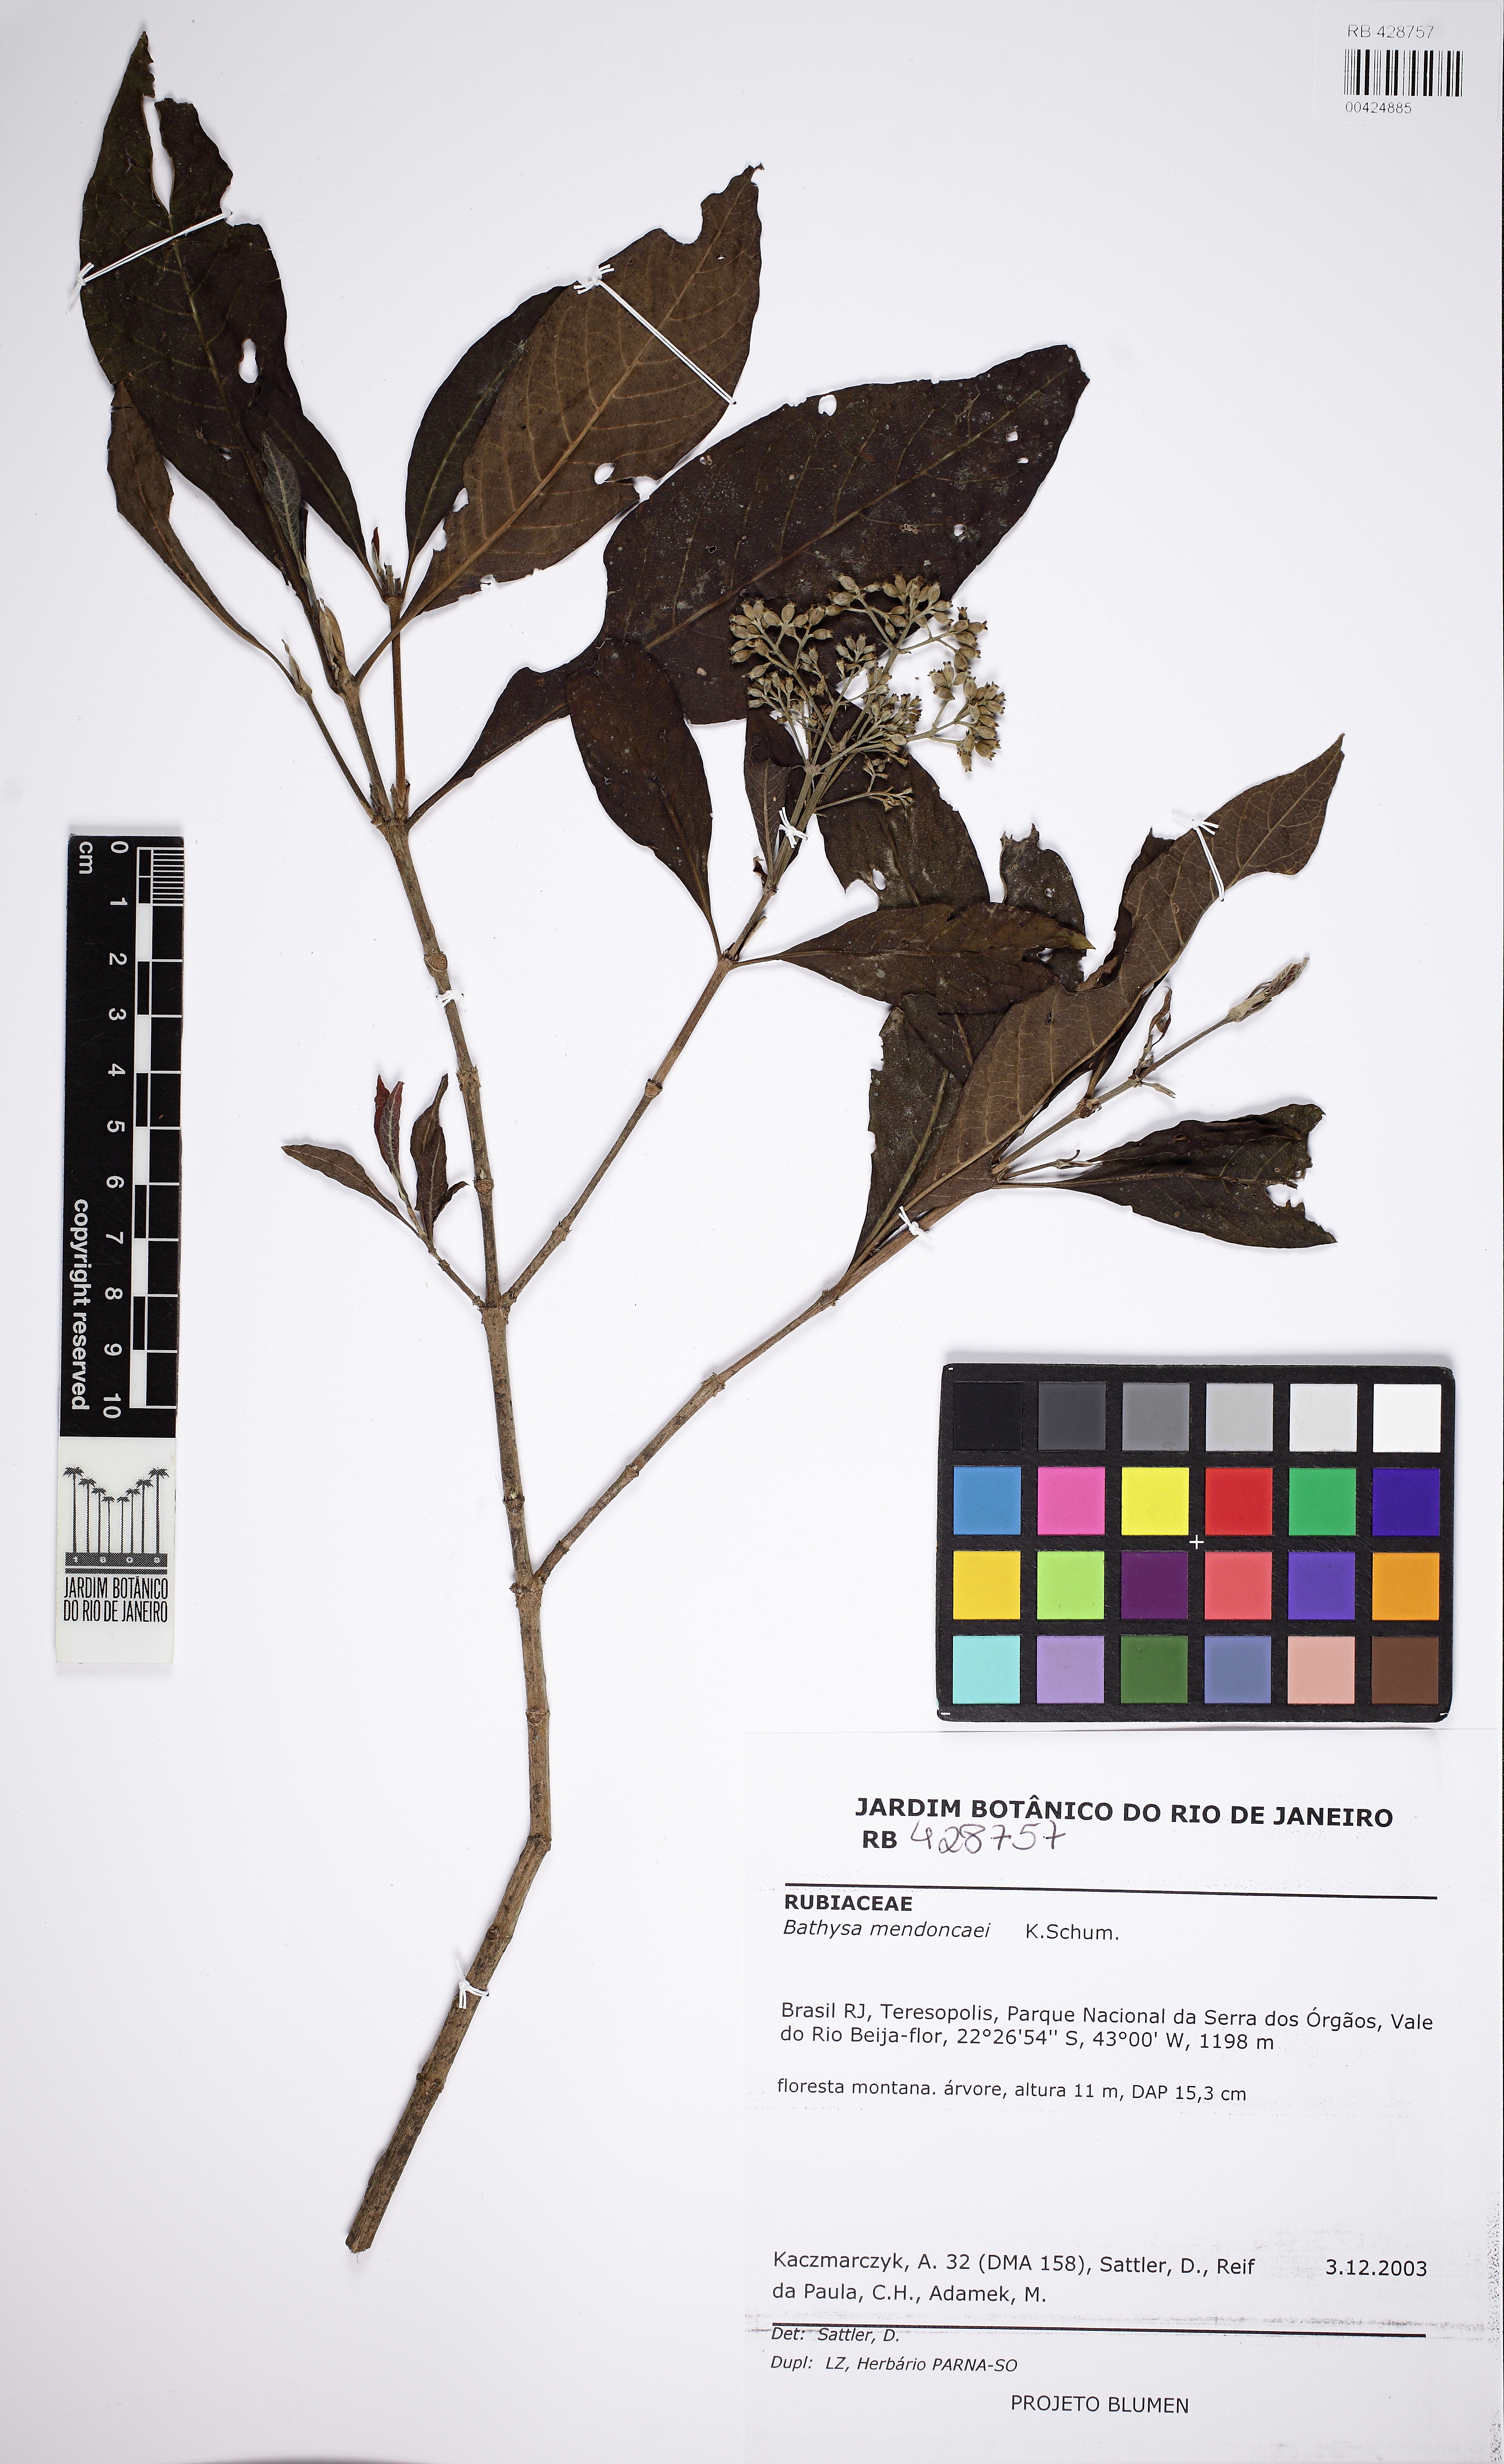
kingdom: Plantae
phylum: Tracheophyta
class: Magnoliopsida
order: Gentianales
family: Rubiaceae
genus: Bathysa
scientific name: Bathysa mendoncaei
